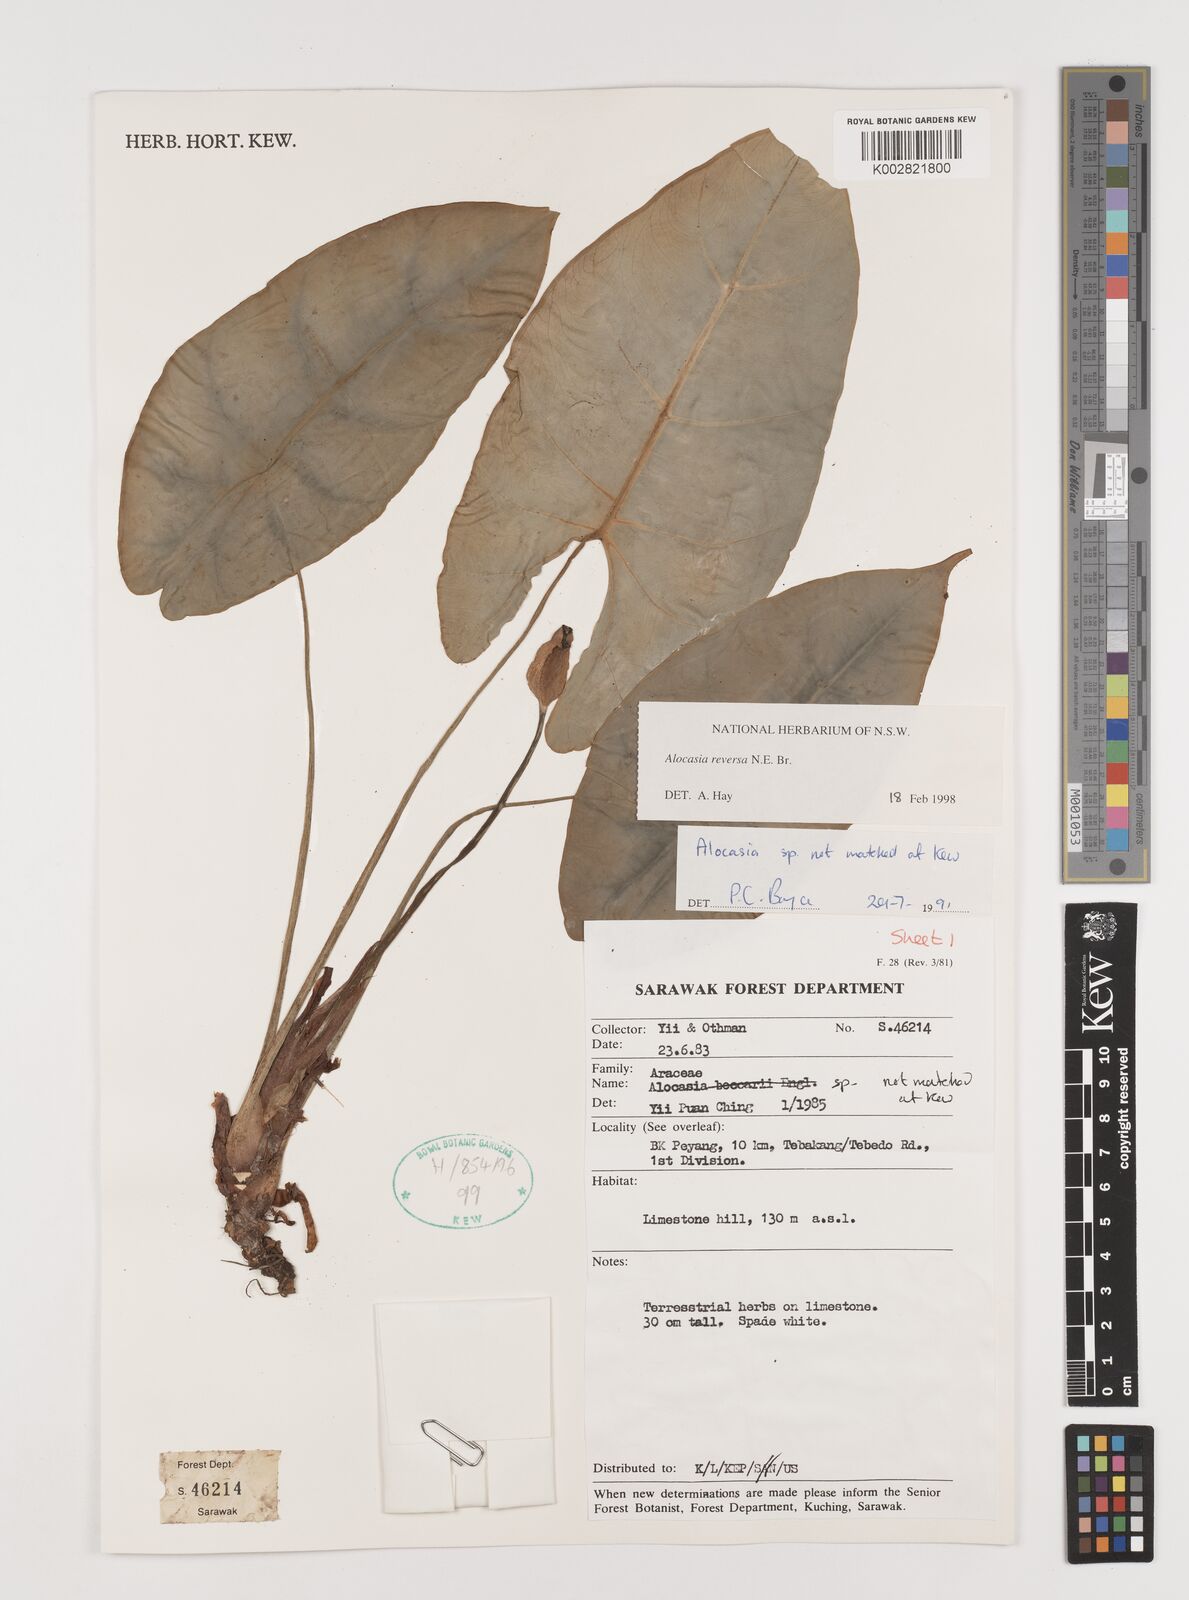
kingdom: Plantae
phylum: Tracheophyta
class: Liliopsida
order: Alismatales
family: Araceae
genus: Alocasia
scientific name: Alocasia reversa
